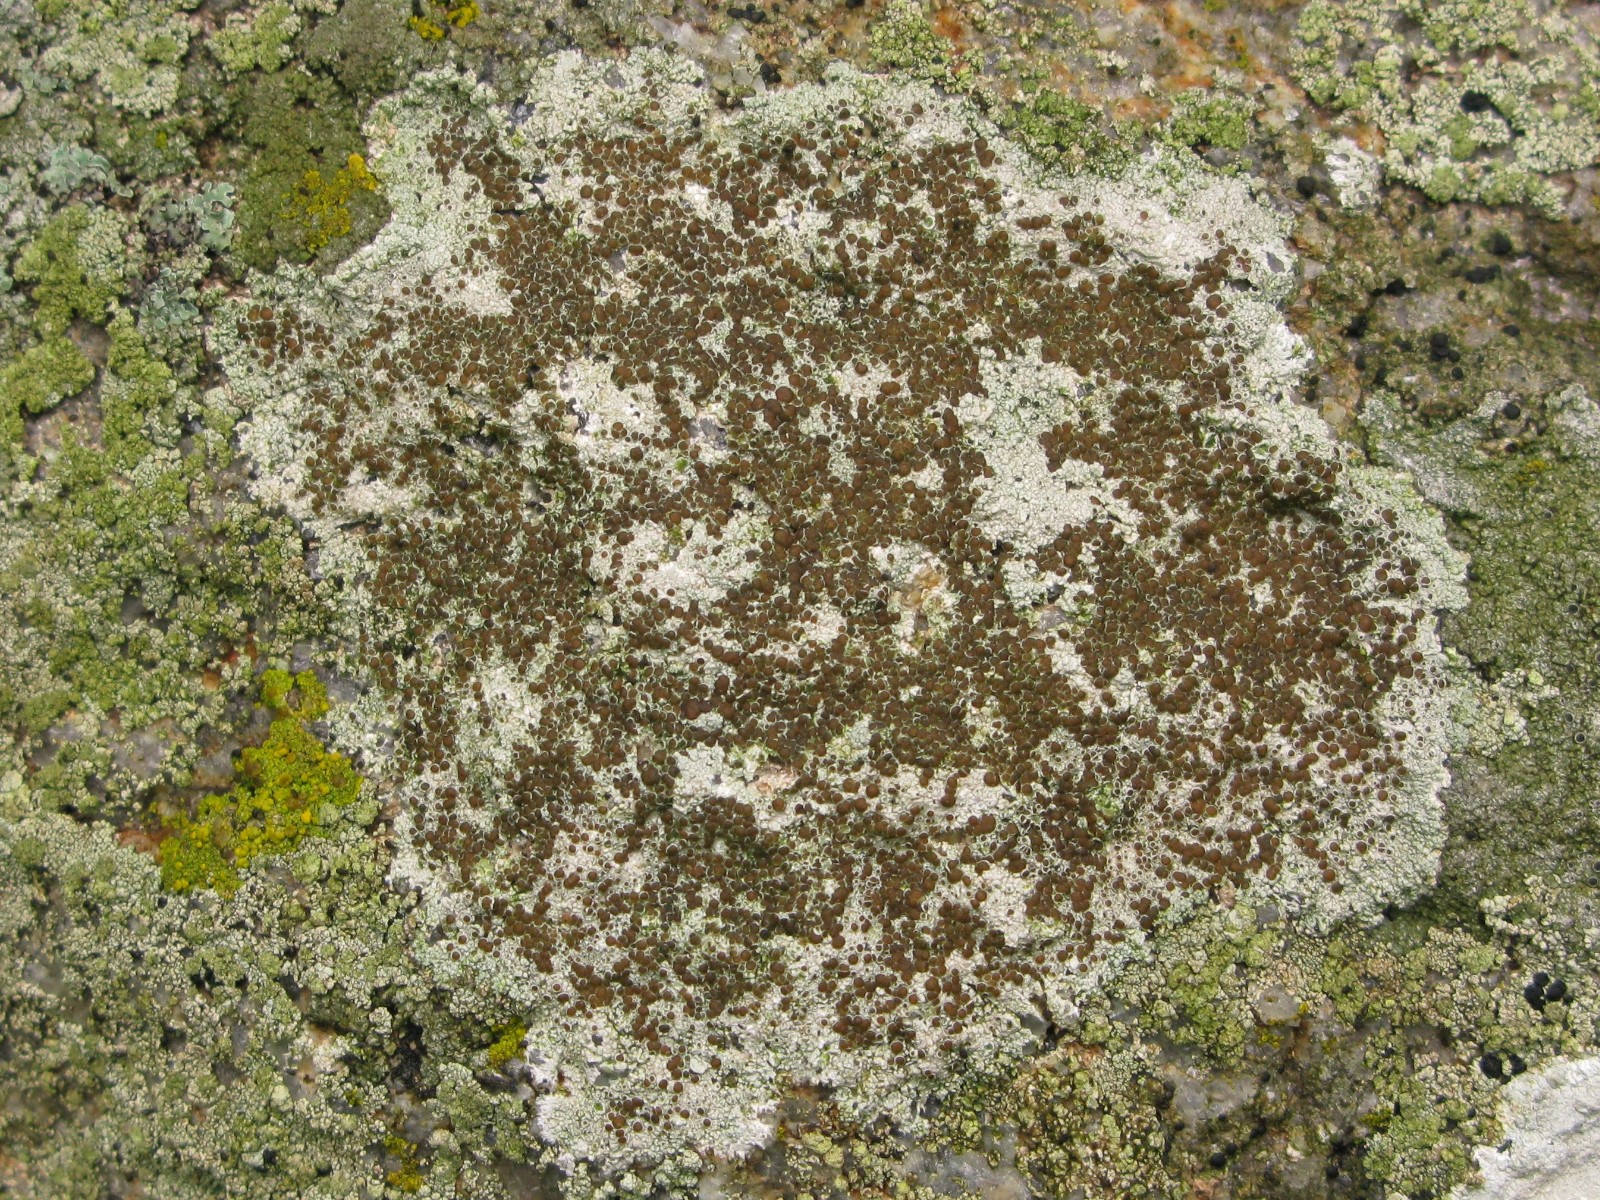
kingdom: Fungi
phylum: Ascomycota
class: Lecanoromycetes
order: Lecanorales
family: Lecanoraceae
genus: Lecanora
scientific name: Lecanora campestris
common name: mur-kantskivelav
